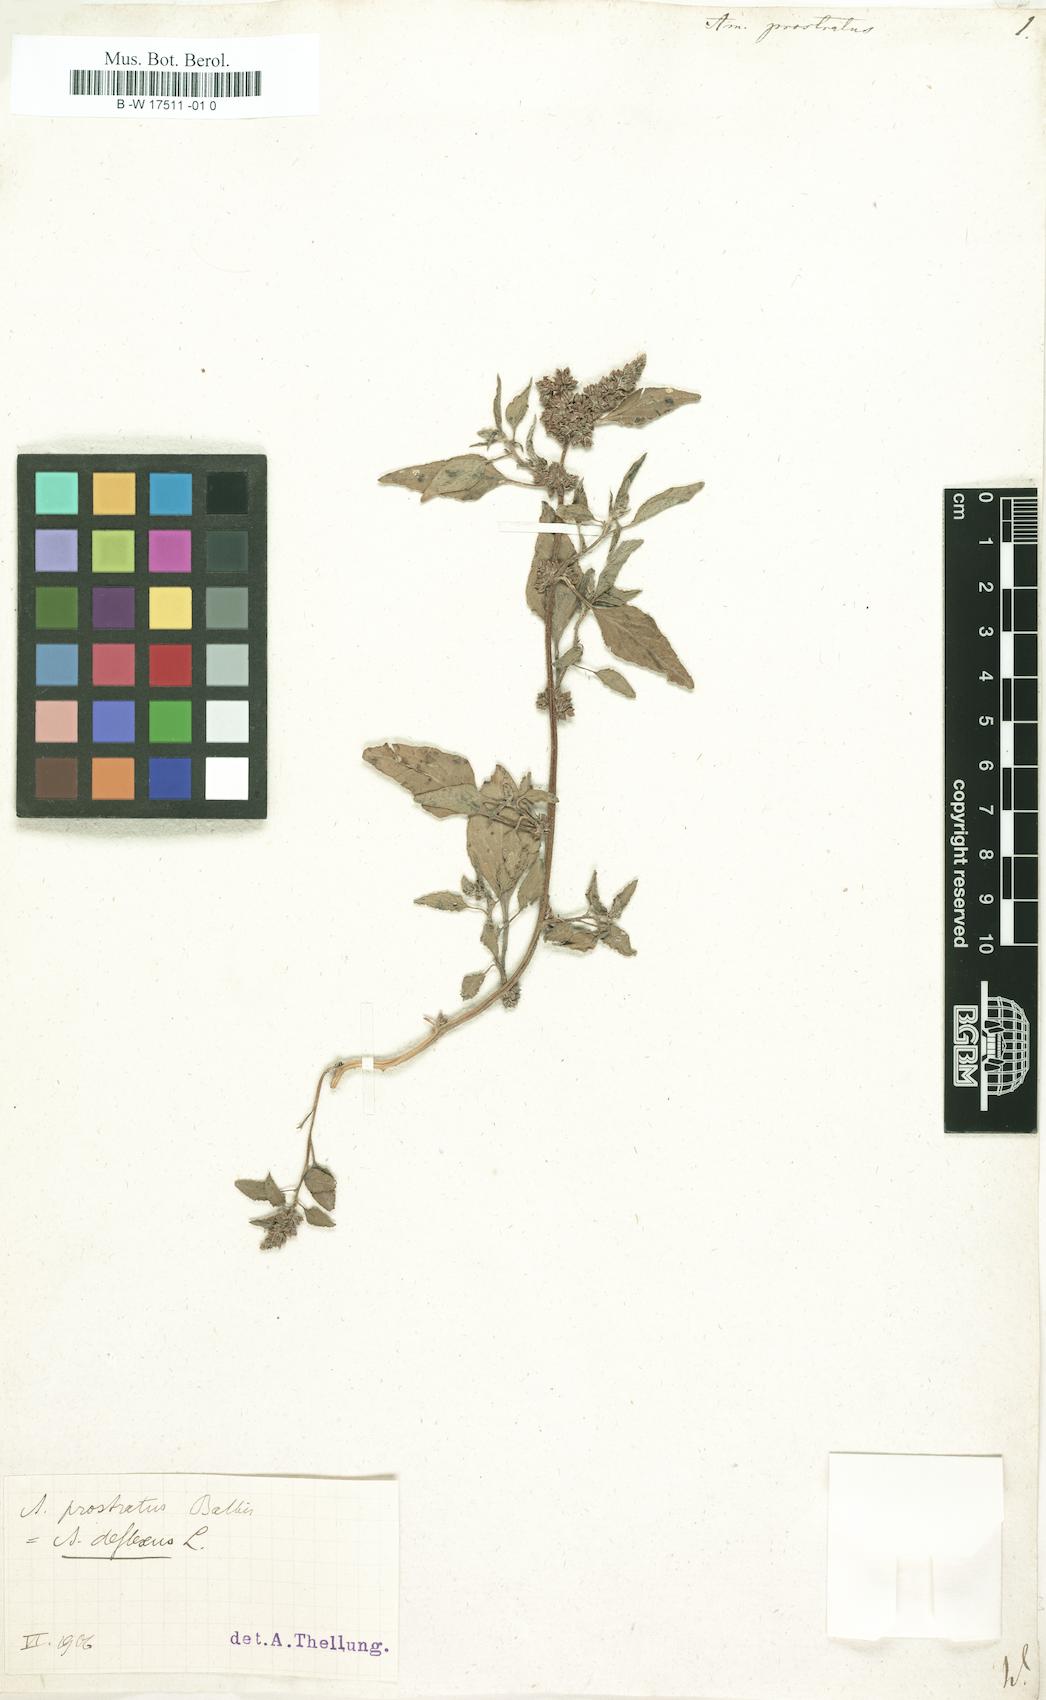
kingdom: Plantae
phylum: Tracheophyta
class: Magnoliopsida
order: Caryophyllales
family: Amaranthaceae
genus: Amaranthus
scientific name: Amaranthus deflexus
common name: Perennial pigweed
